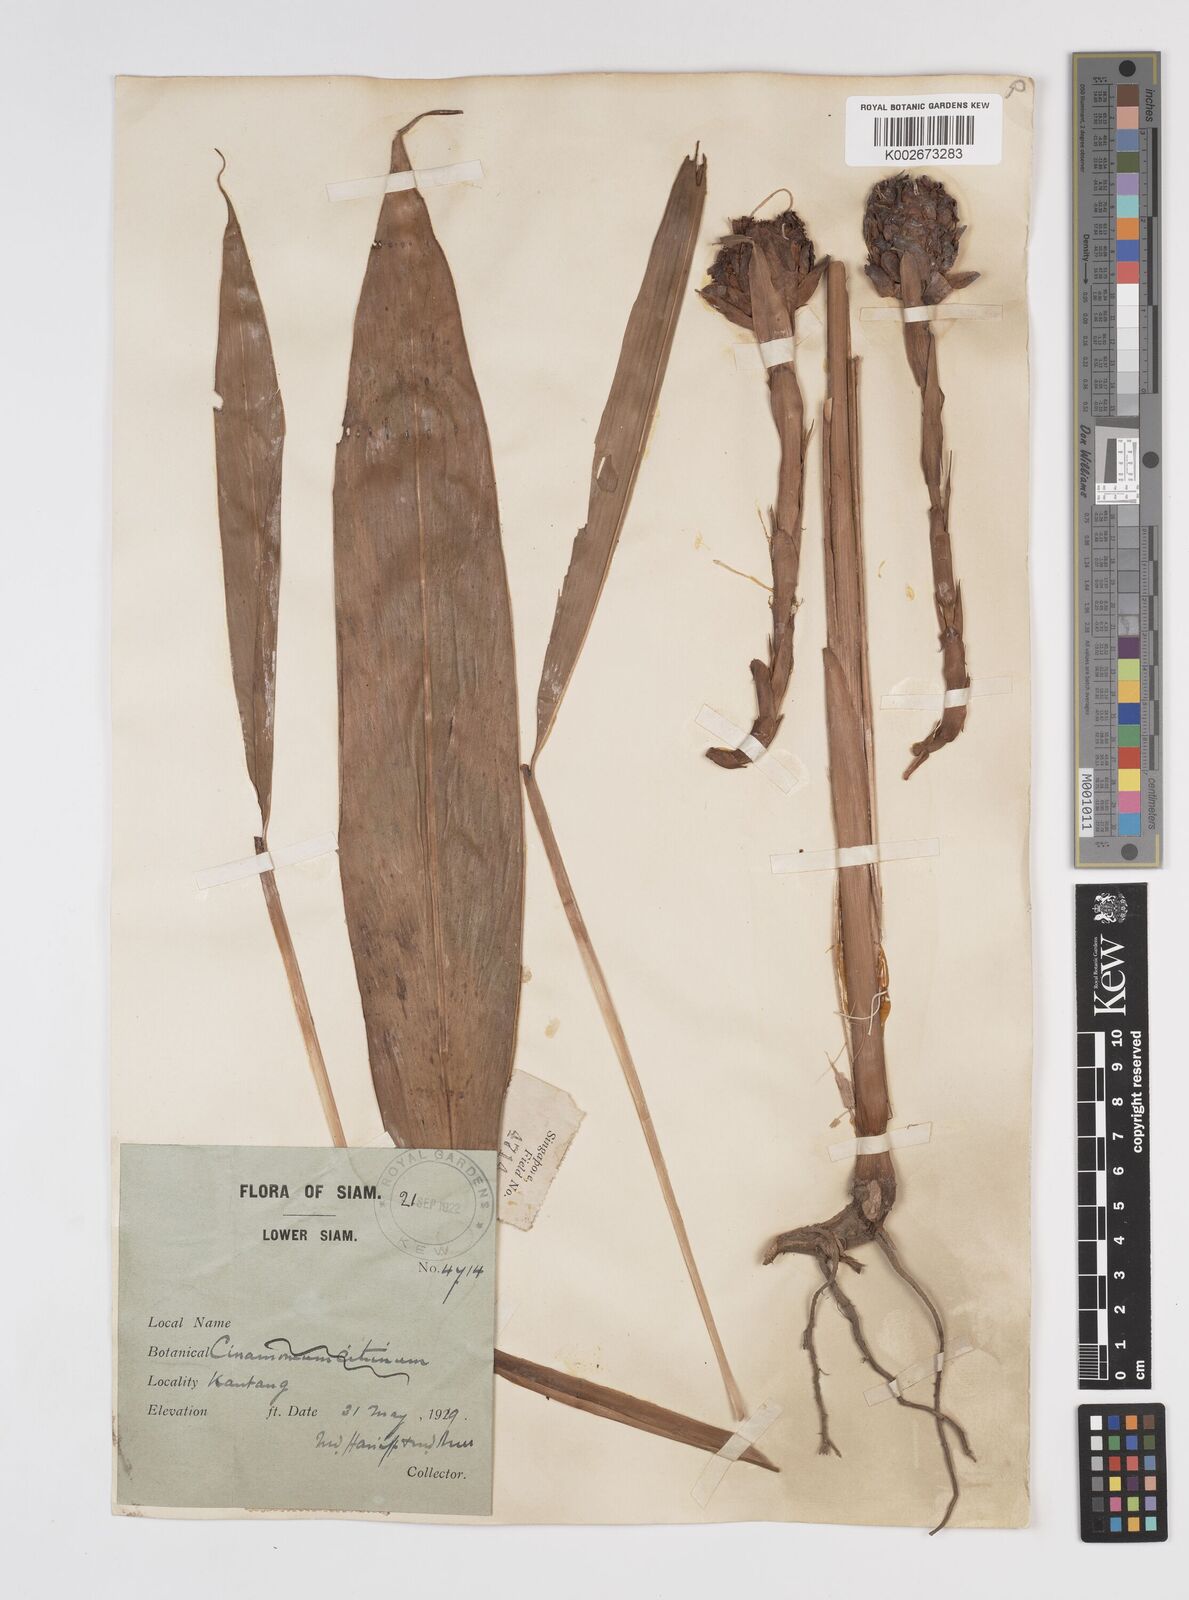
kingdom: Plantae
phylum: Tracheophyta
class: Liliopsida
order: Zingiberales
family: Zingiberaceae
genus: Amomum
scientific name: Amomum
